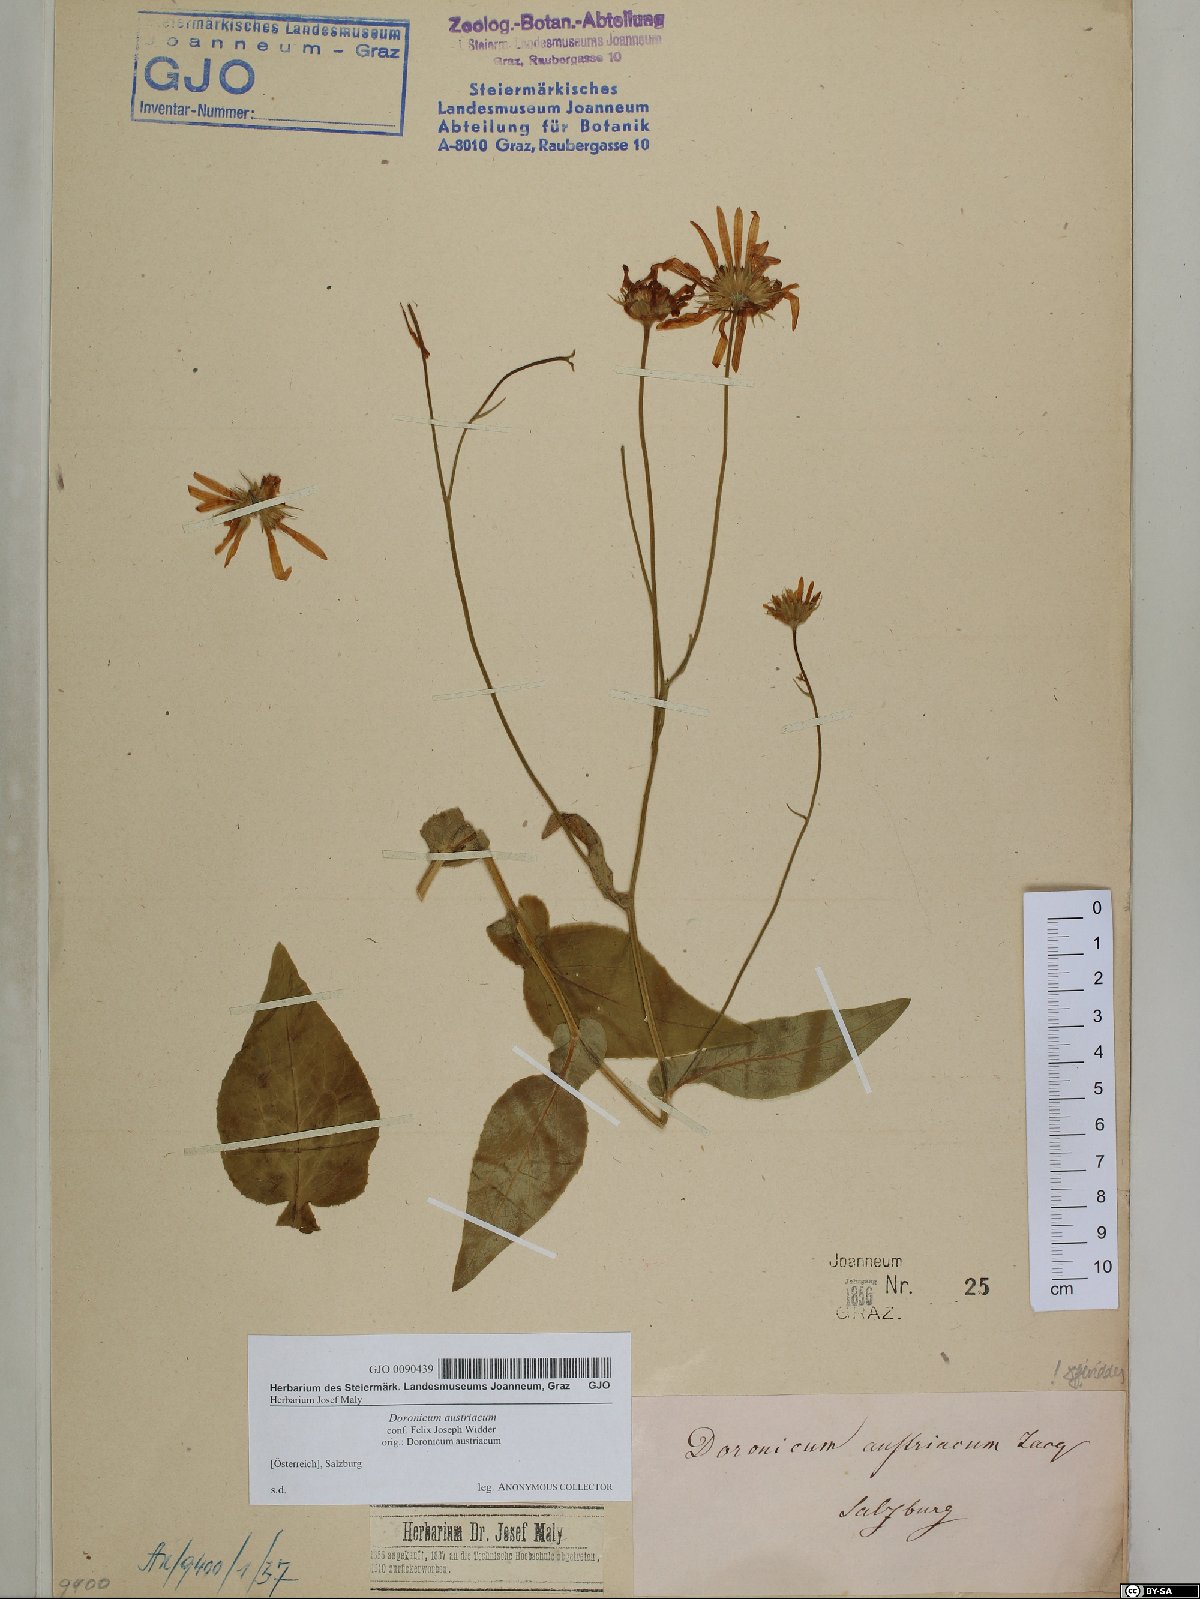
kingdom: Plantae
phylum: Tracheophyta
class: Magnoliopsida
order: Asterales
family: Asteraceae
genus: Doronicum
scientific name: Doronicum austriacum
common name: Austrian leopard's-bane
